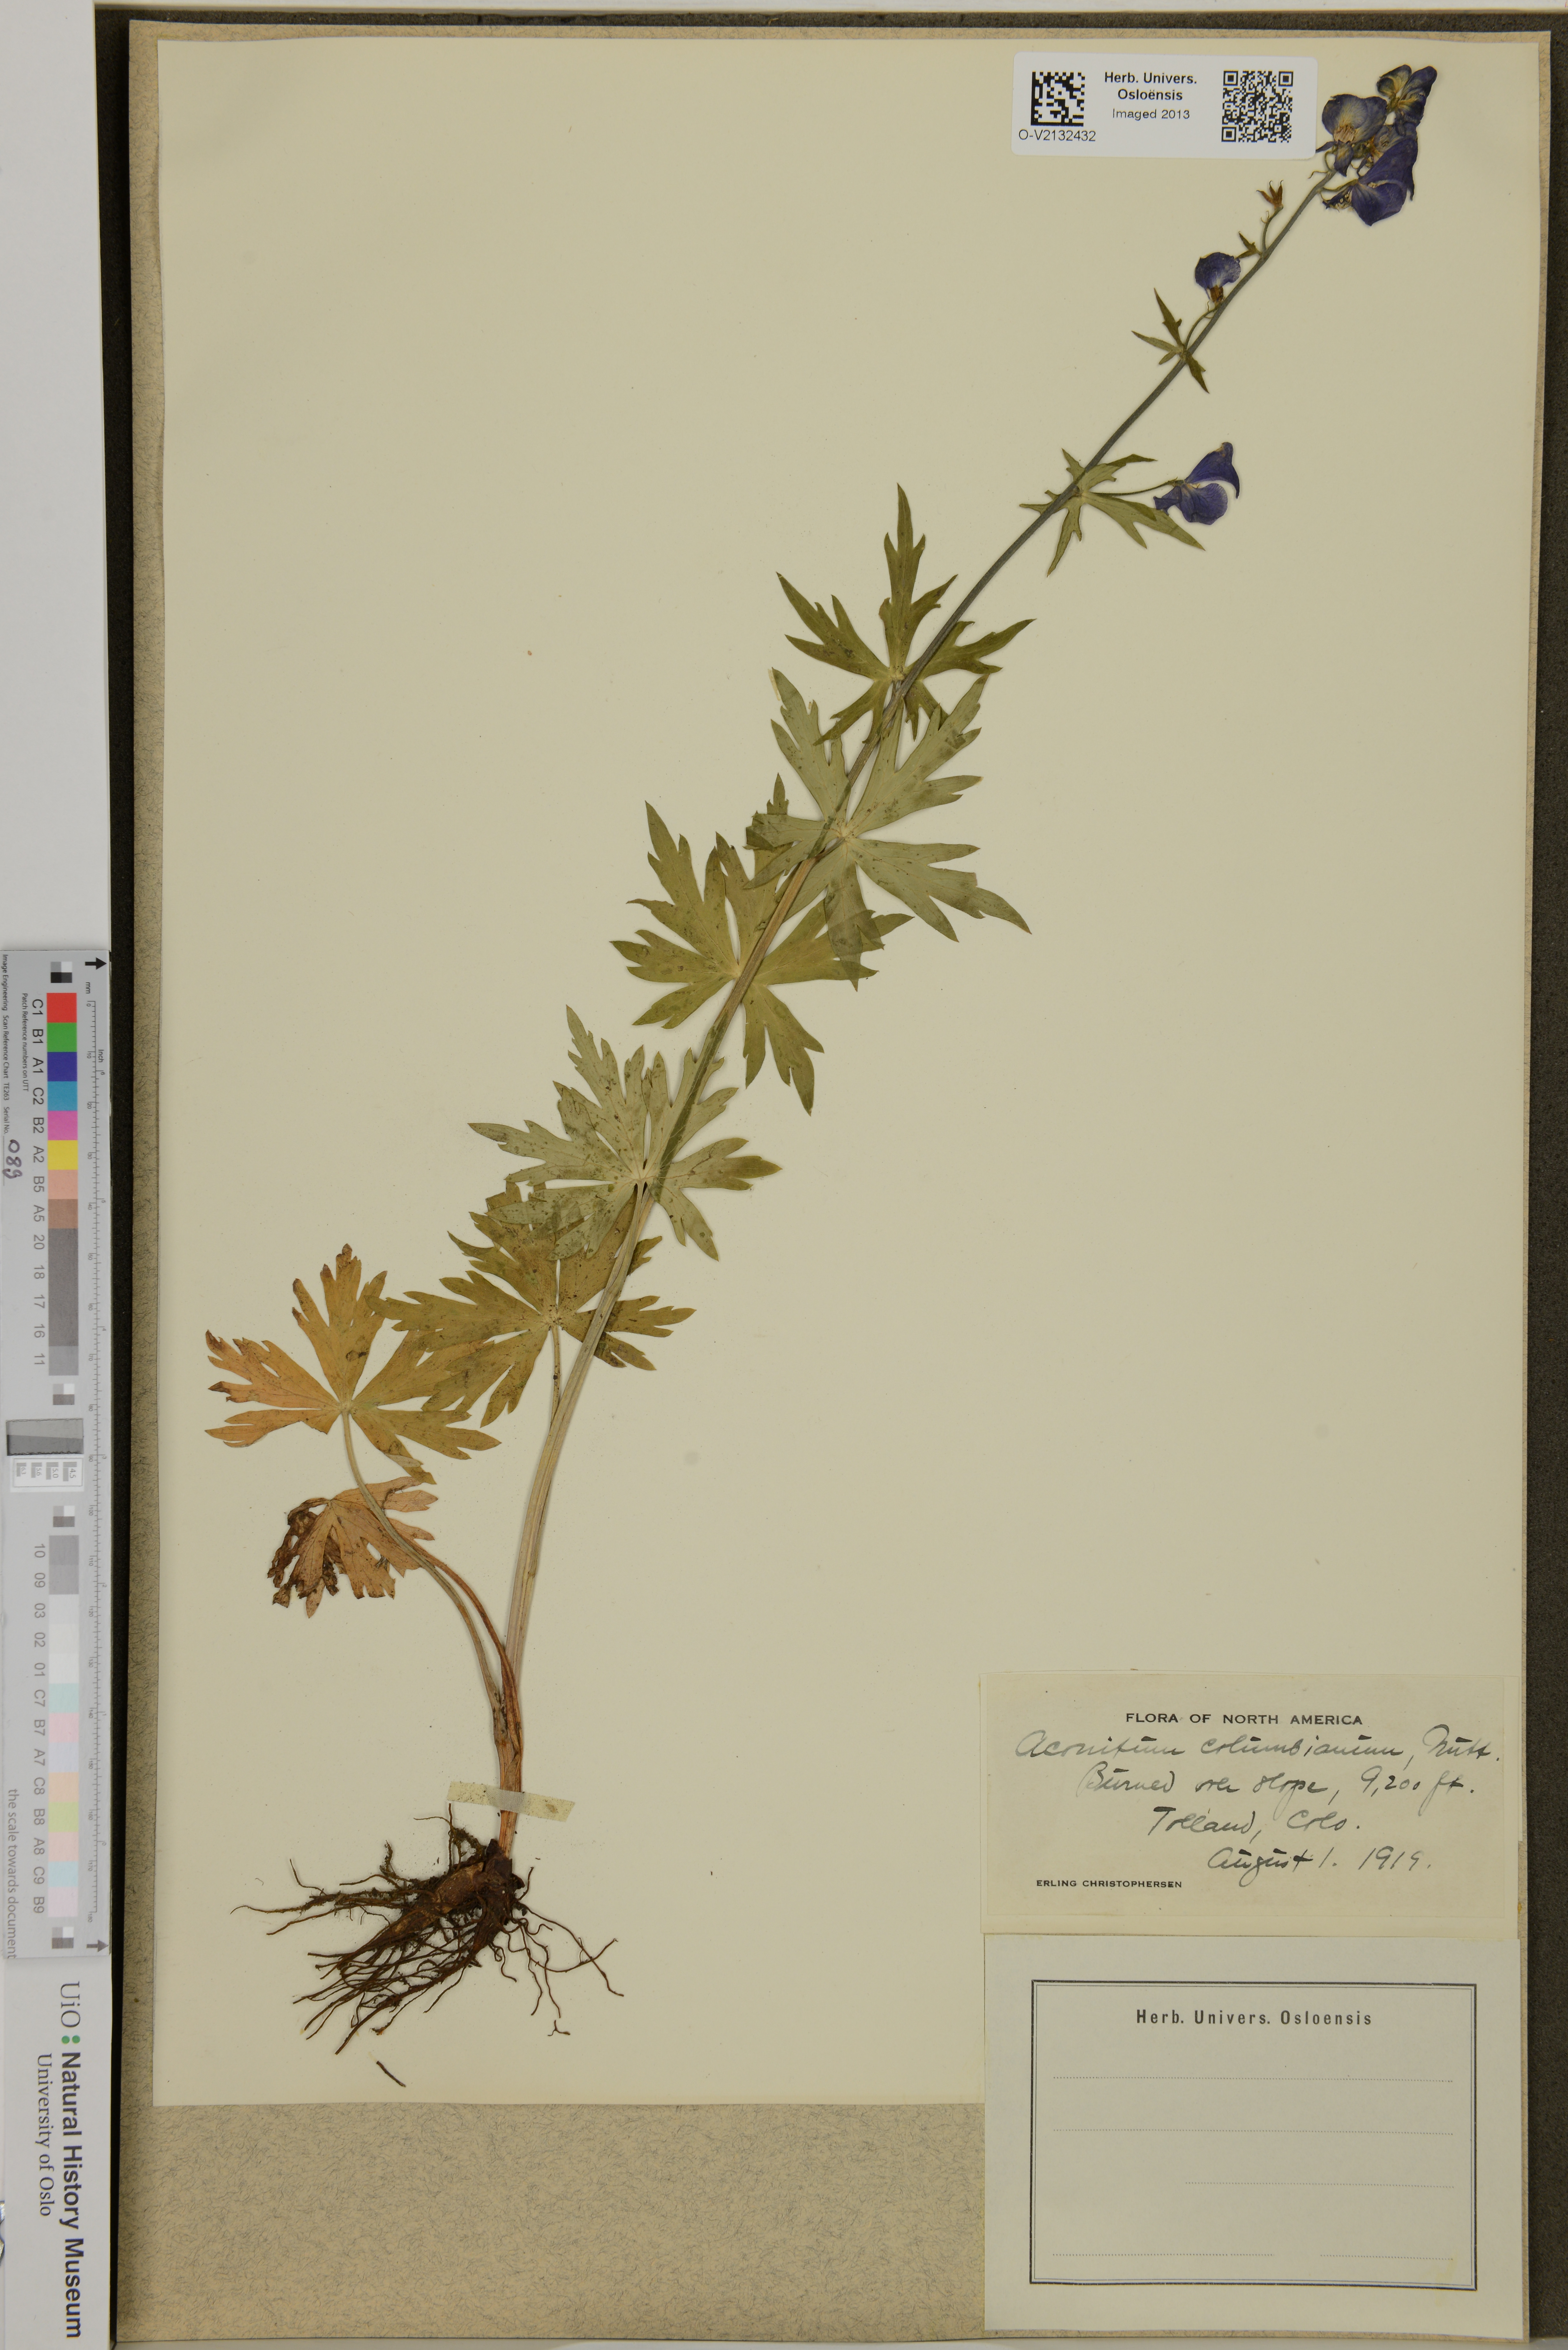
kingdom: Plantae
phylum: Tracheophyta
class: Magnoliopsida
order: Ranunculales
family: Ranunculaceae
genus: Aconitum
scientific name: Aconitum columbianum
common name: Columbia aconite
